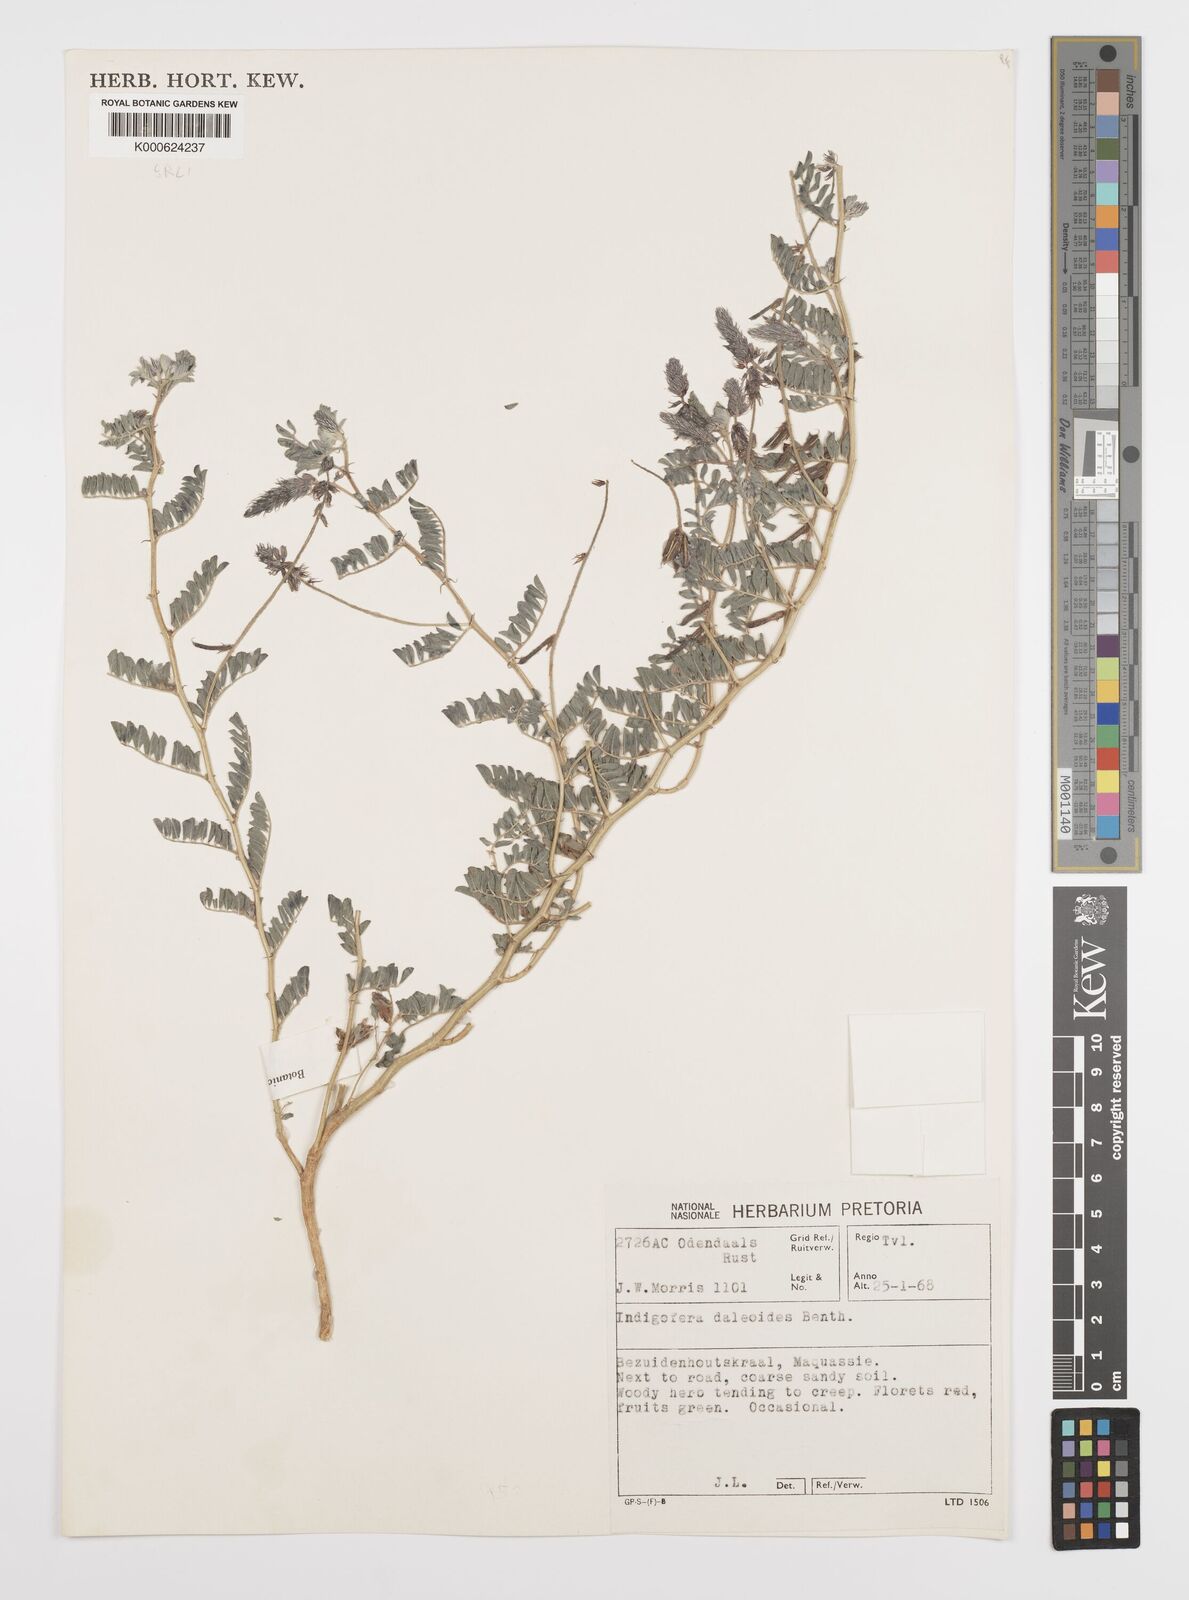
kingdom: Plantae
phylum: Tracheophyta
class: Magnoliopsida
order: Fabales
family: Fabaceae
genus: Indigofera
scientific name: Indigofera daleoides
